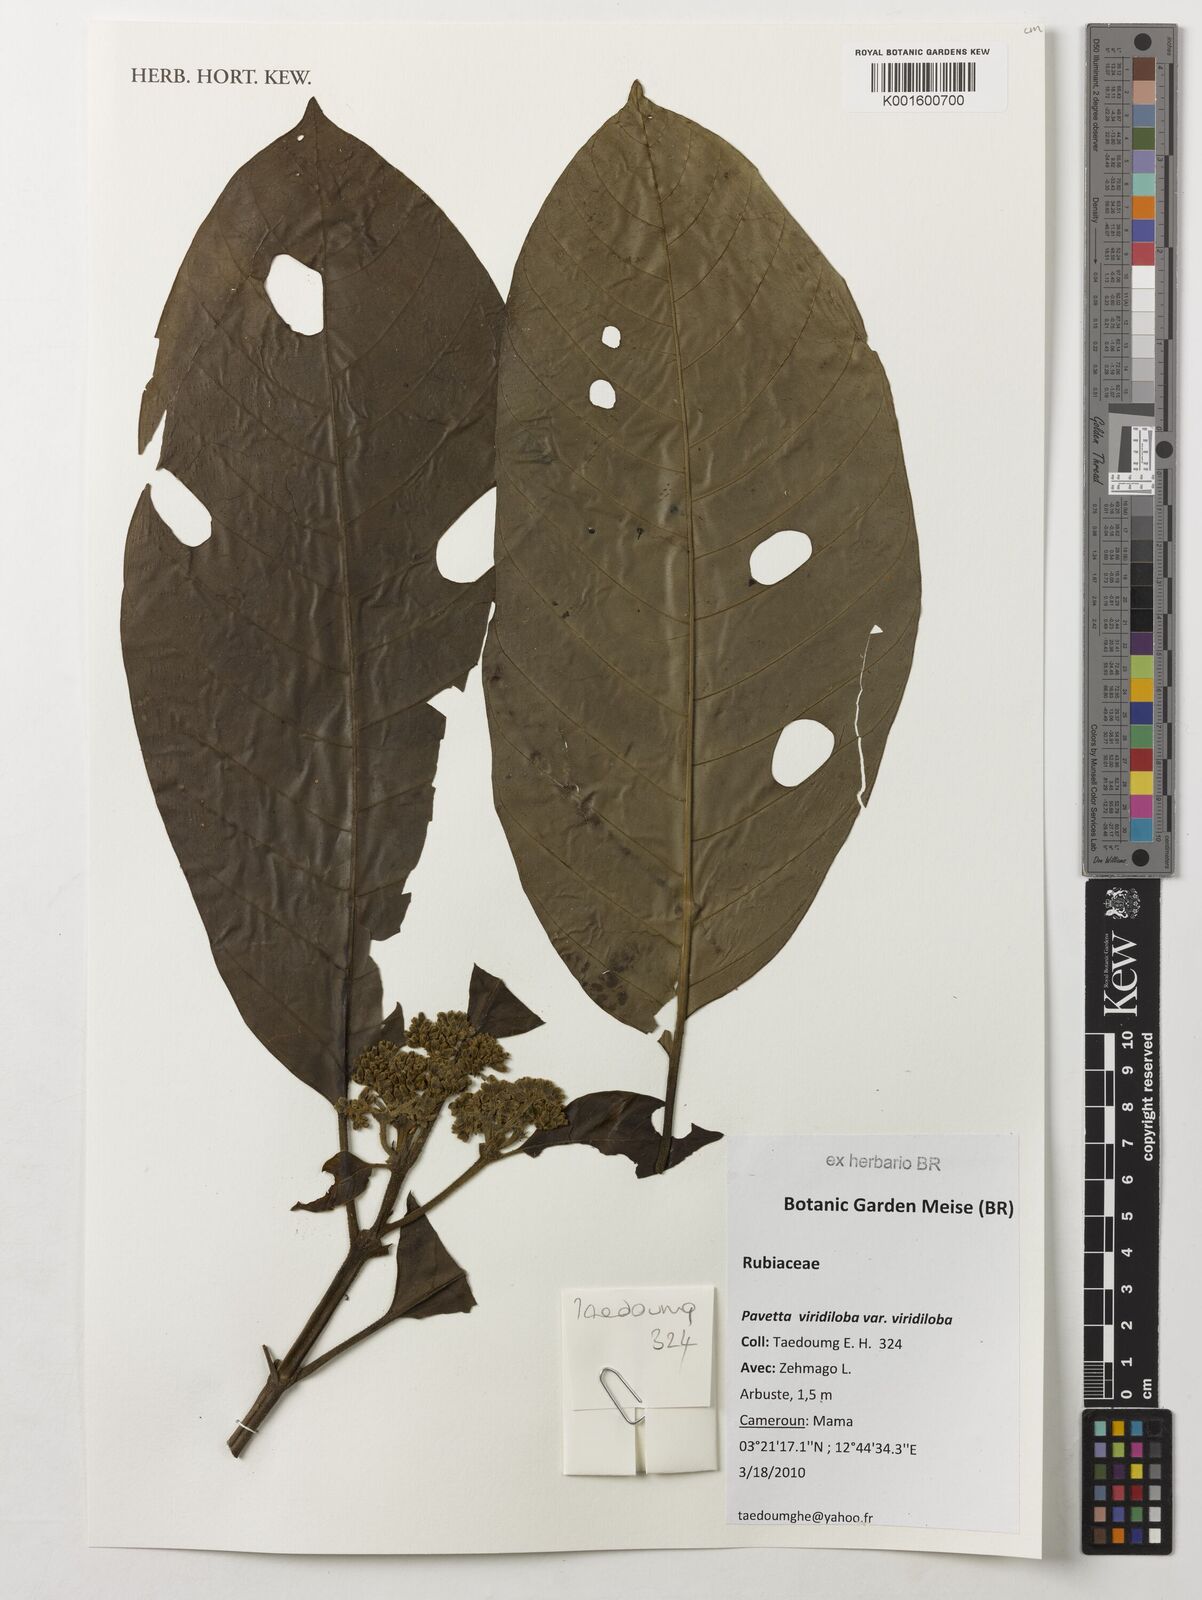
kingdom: Plantae
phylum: Tracheophyta
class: Magnoliopsida
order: Gentianales
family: Rubiaceae
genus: Pavetta
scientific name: Pavetta viridiloba
